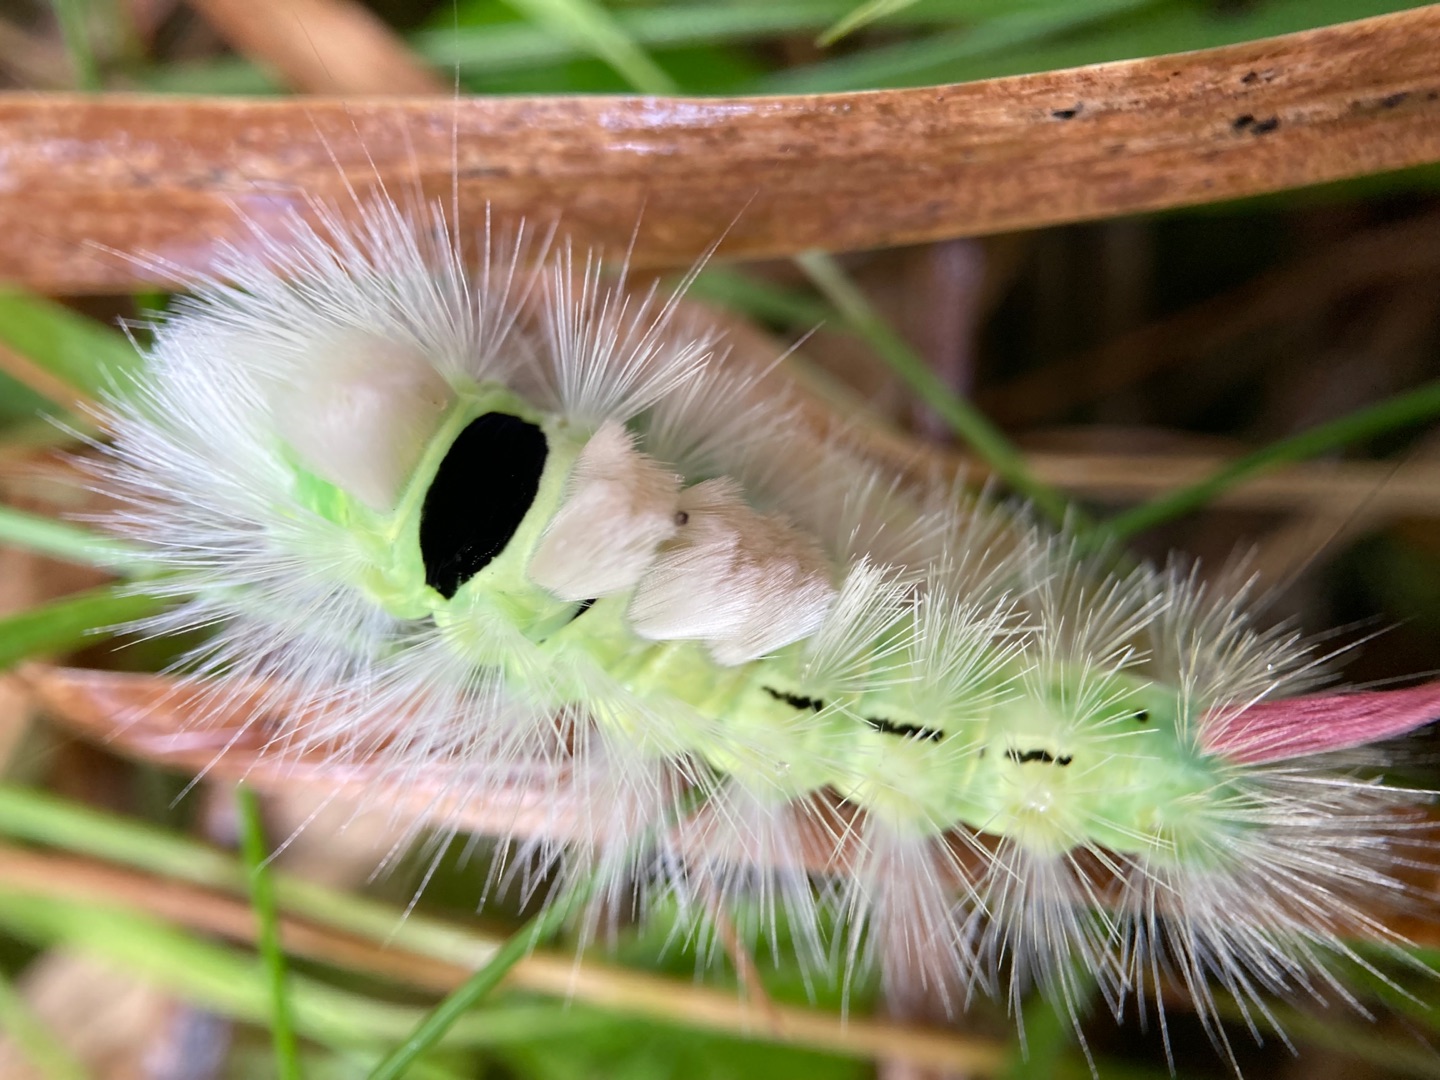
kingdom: Animalia
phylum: Arthropoda
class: Insecta
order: Lepidoptera
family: Erebidae
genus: Calliteara
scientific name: Calliteara pudibunda
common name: Bøgenonne
